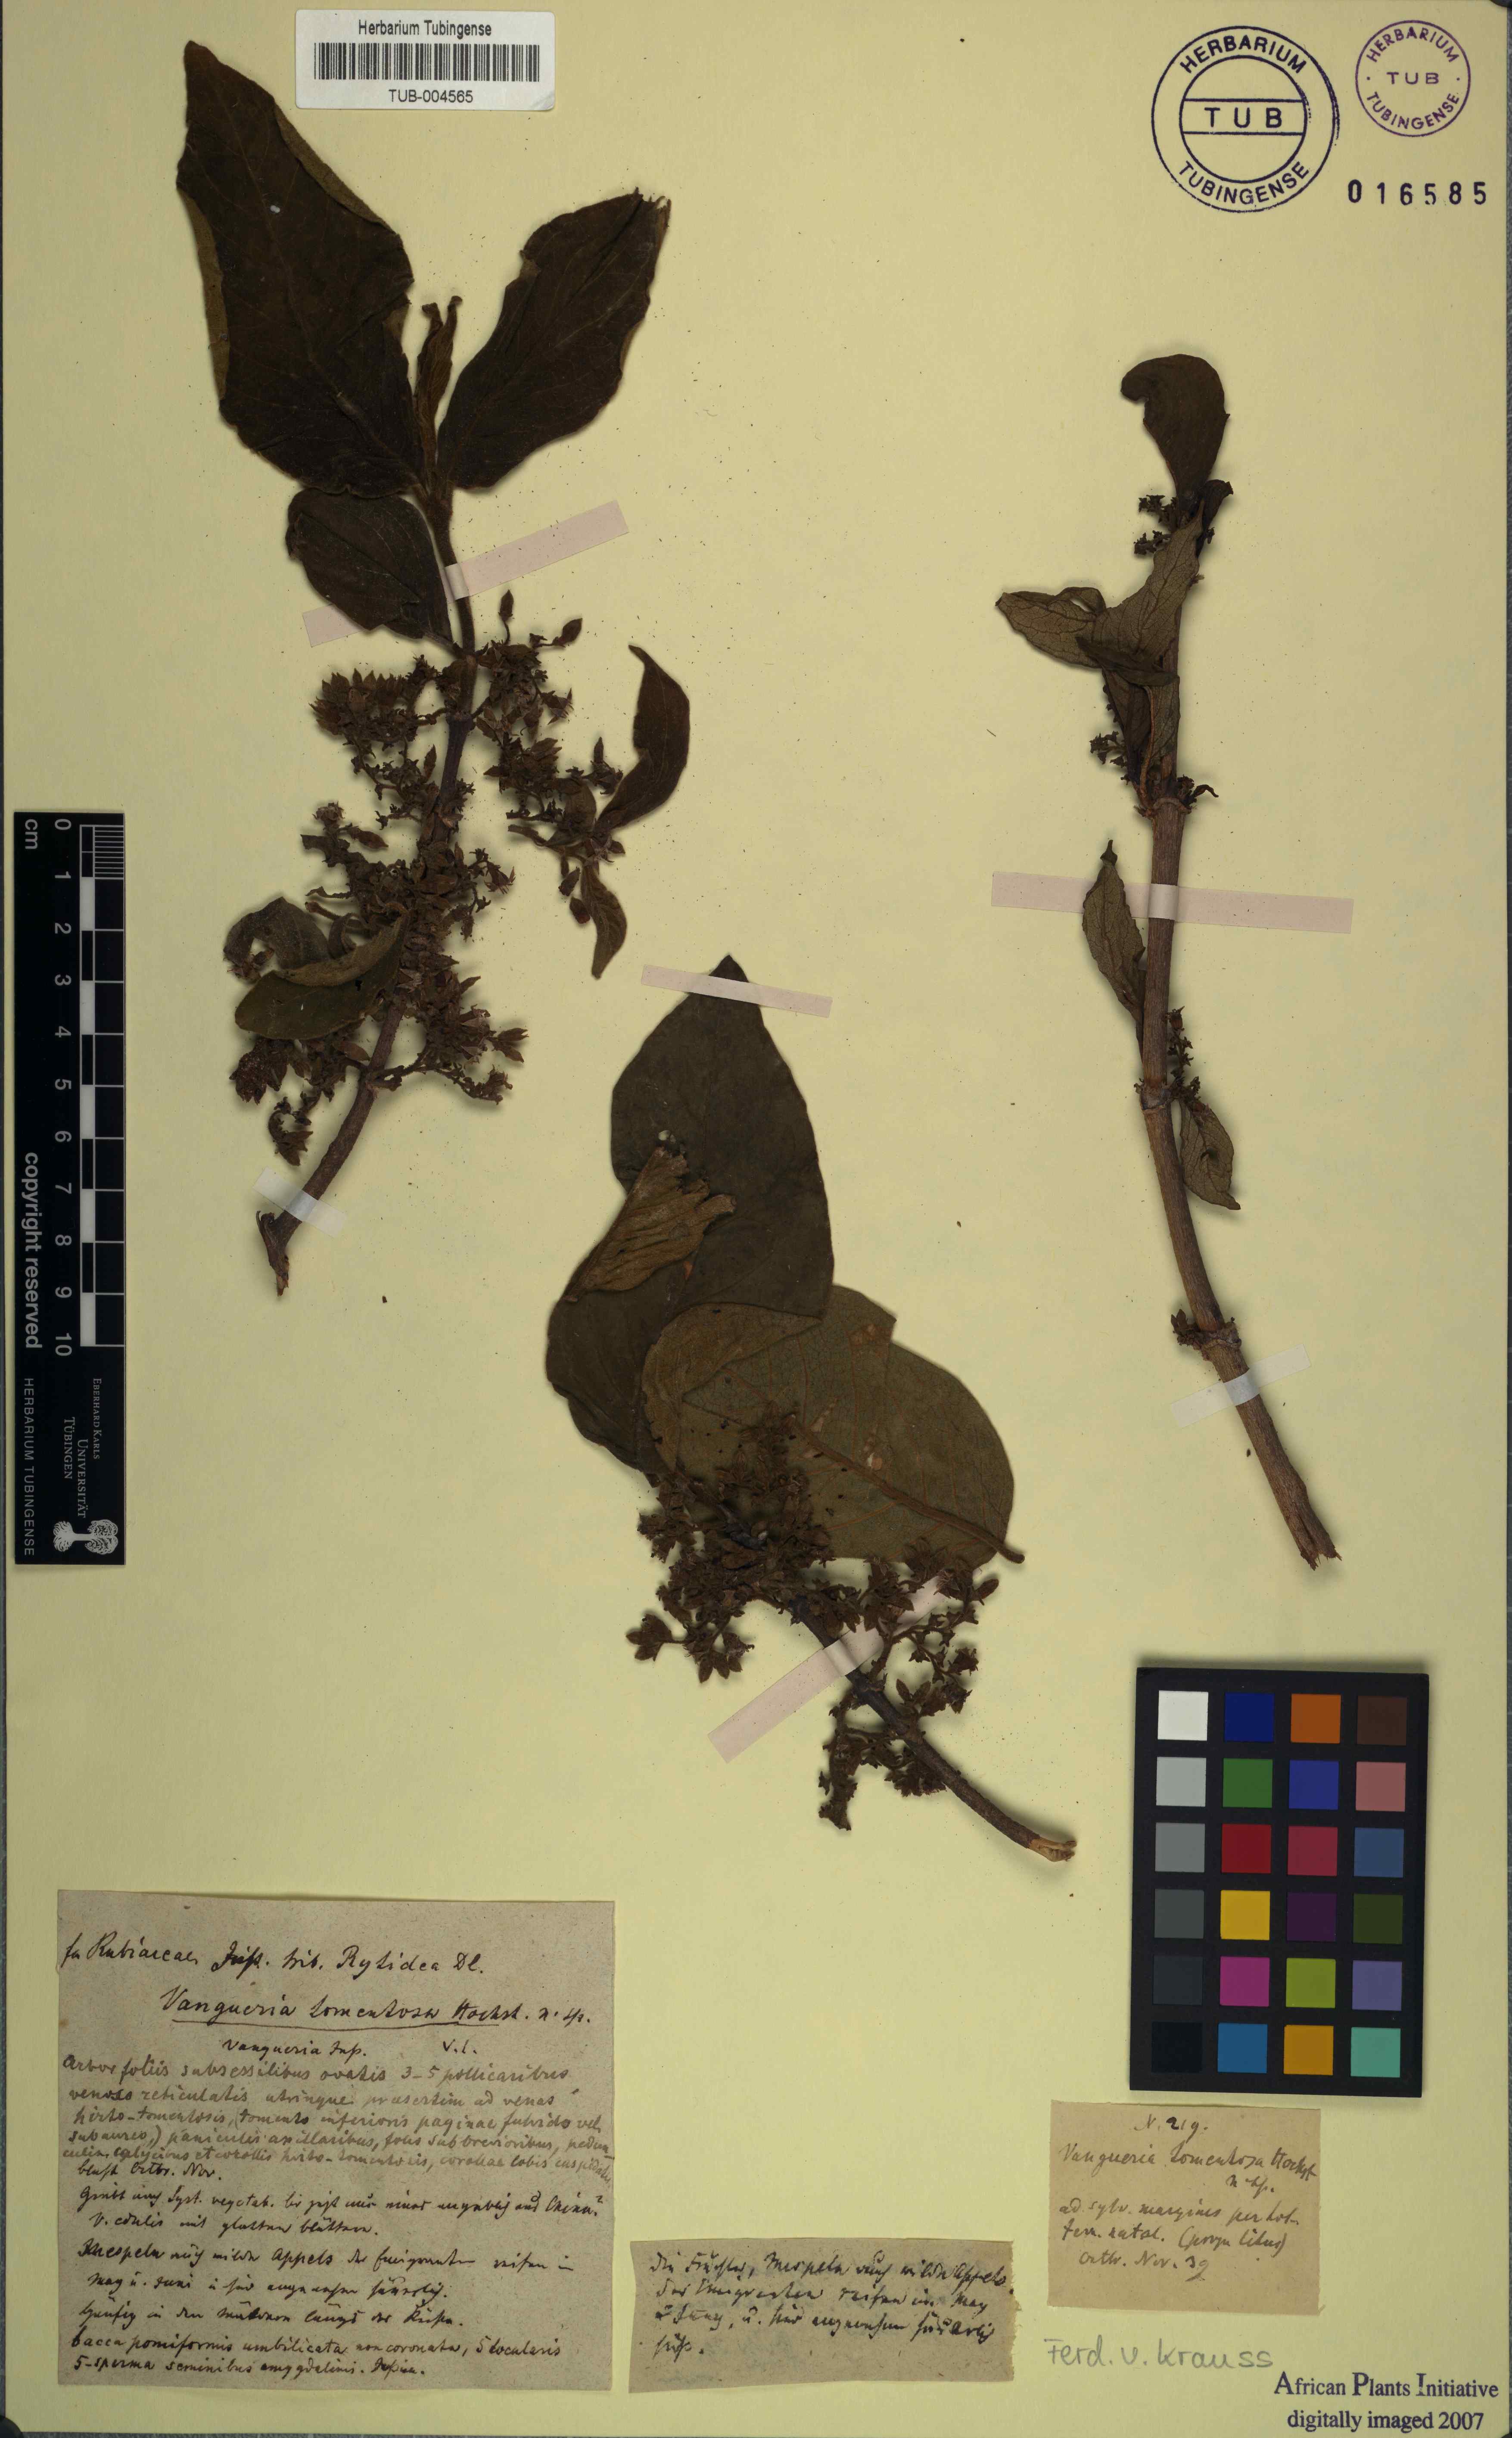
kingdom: Plantae
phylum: Tracheophyta
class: Magnoliopsida
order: Gentianales
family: Rubiaceae
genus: Vangueria
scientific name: Vangueria infausta
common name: Medlar
